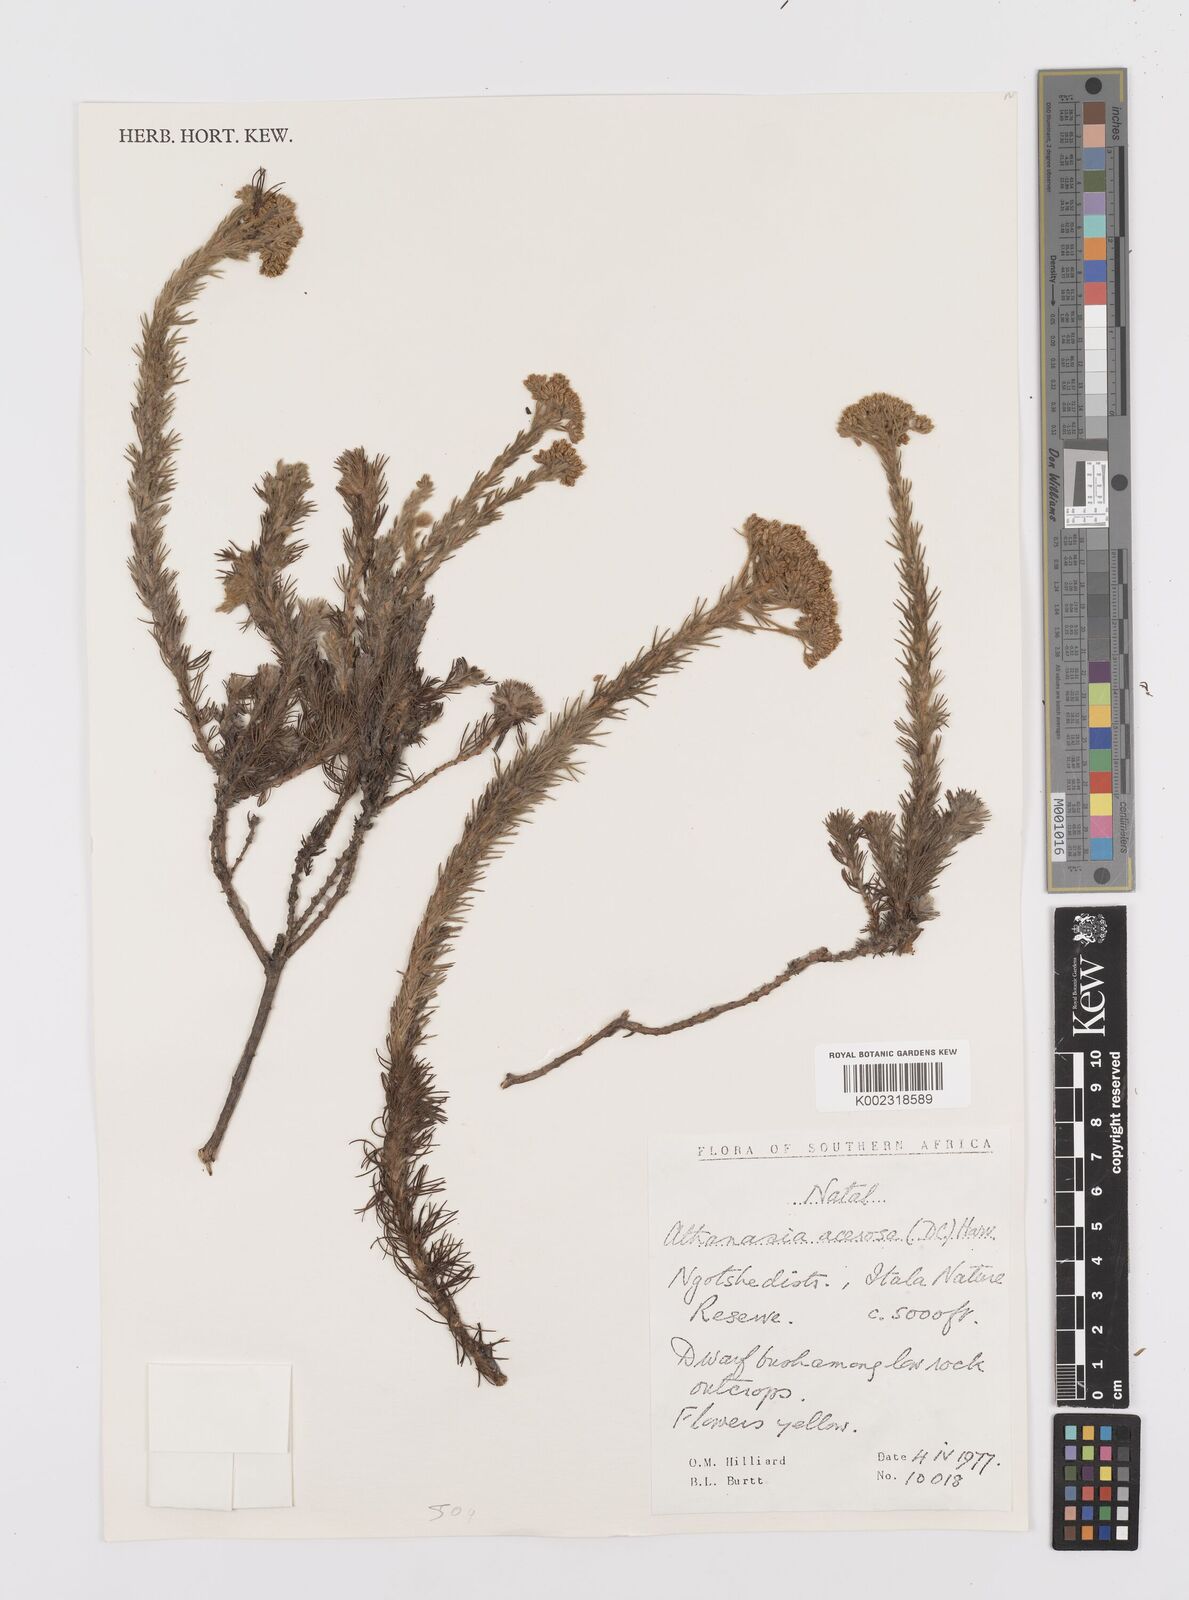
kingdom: Plantae
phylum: Tracheophyta
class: Magnoliopsida
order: Asterales
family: Asteraceae
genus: Phymaspermum
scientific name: Phymaspermum acerosum
